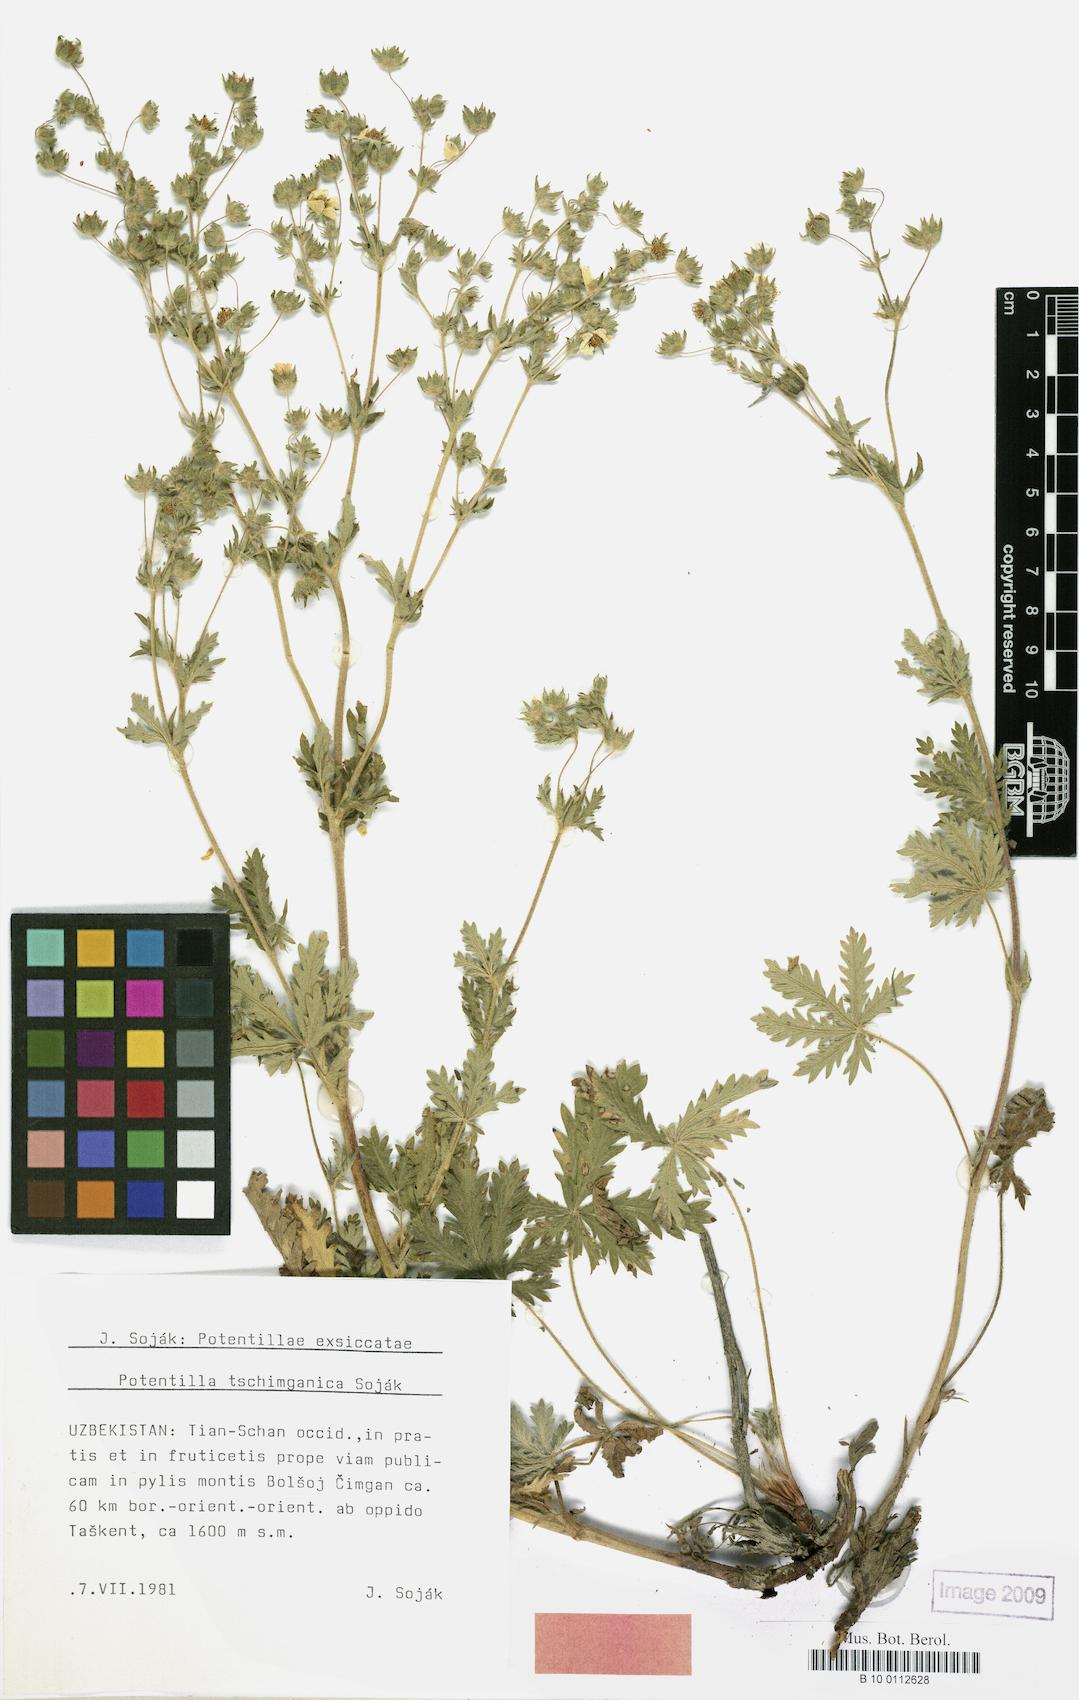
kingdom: Plantae
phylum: Tracheophyta
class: Magnoliopsida
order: Rosales
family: Rosaceae
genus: Potentilla
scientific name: Potentilla tschimganica
